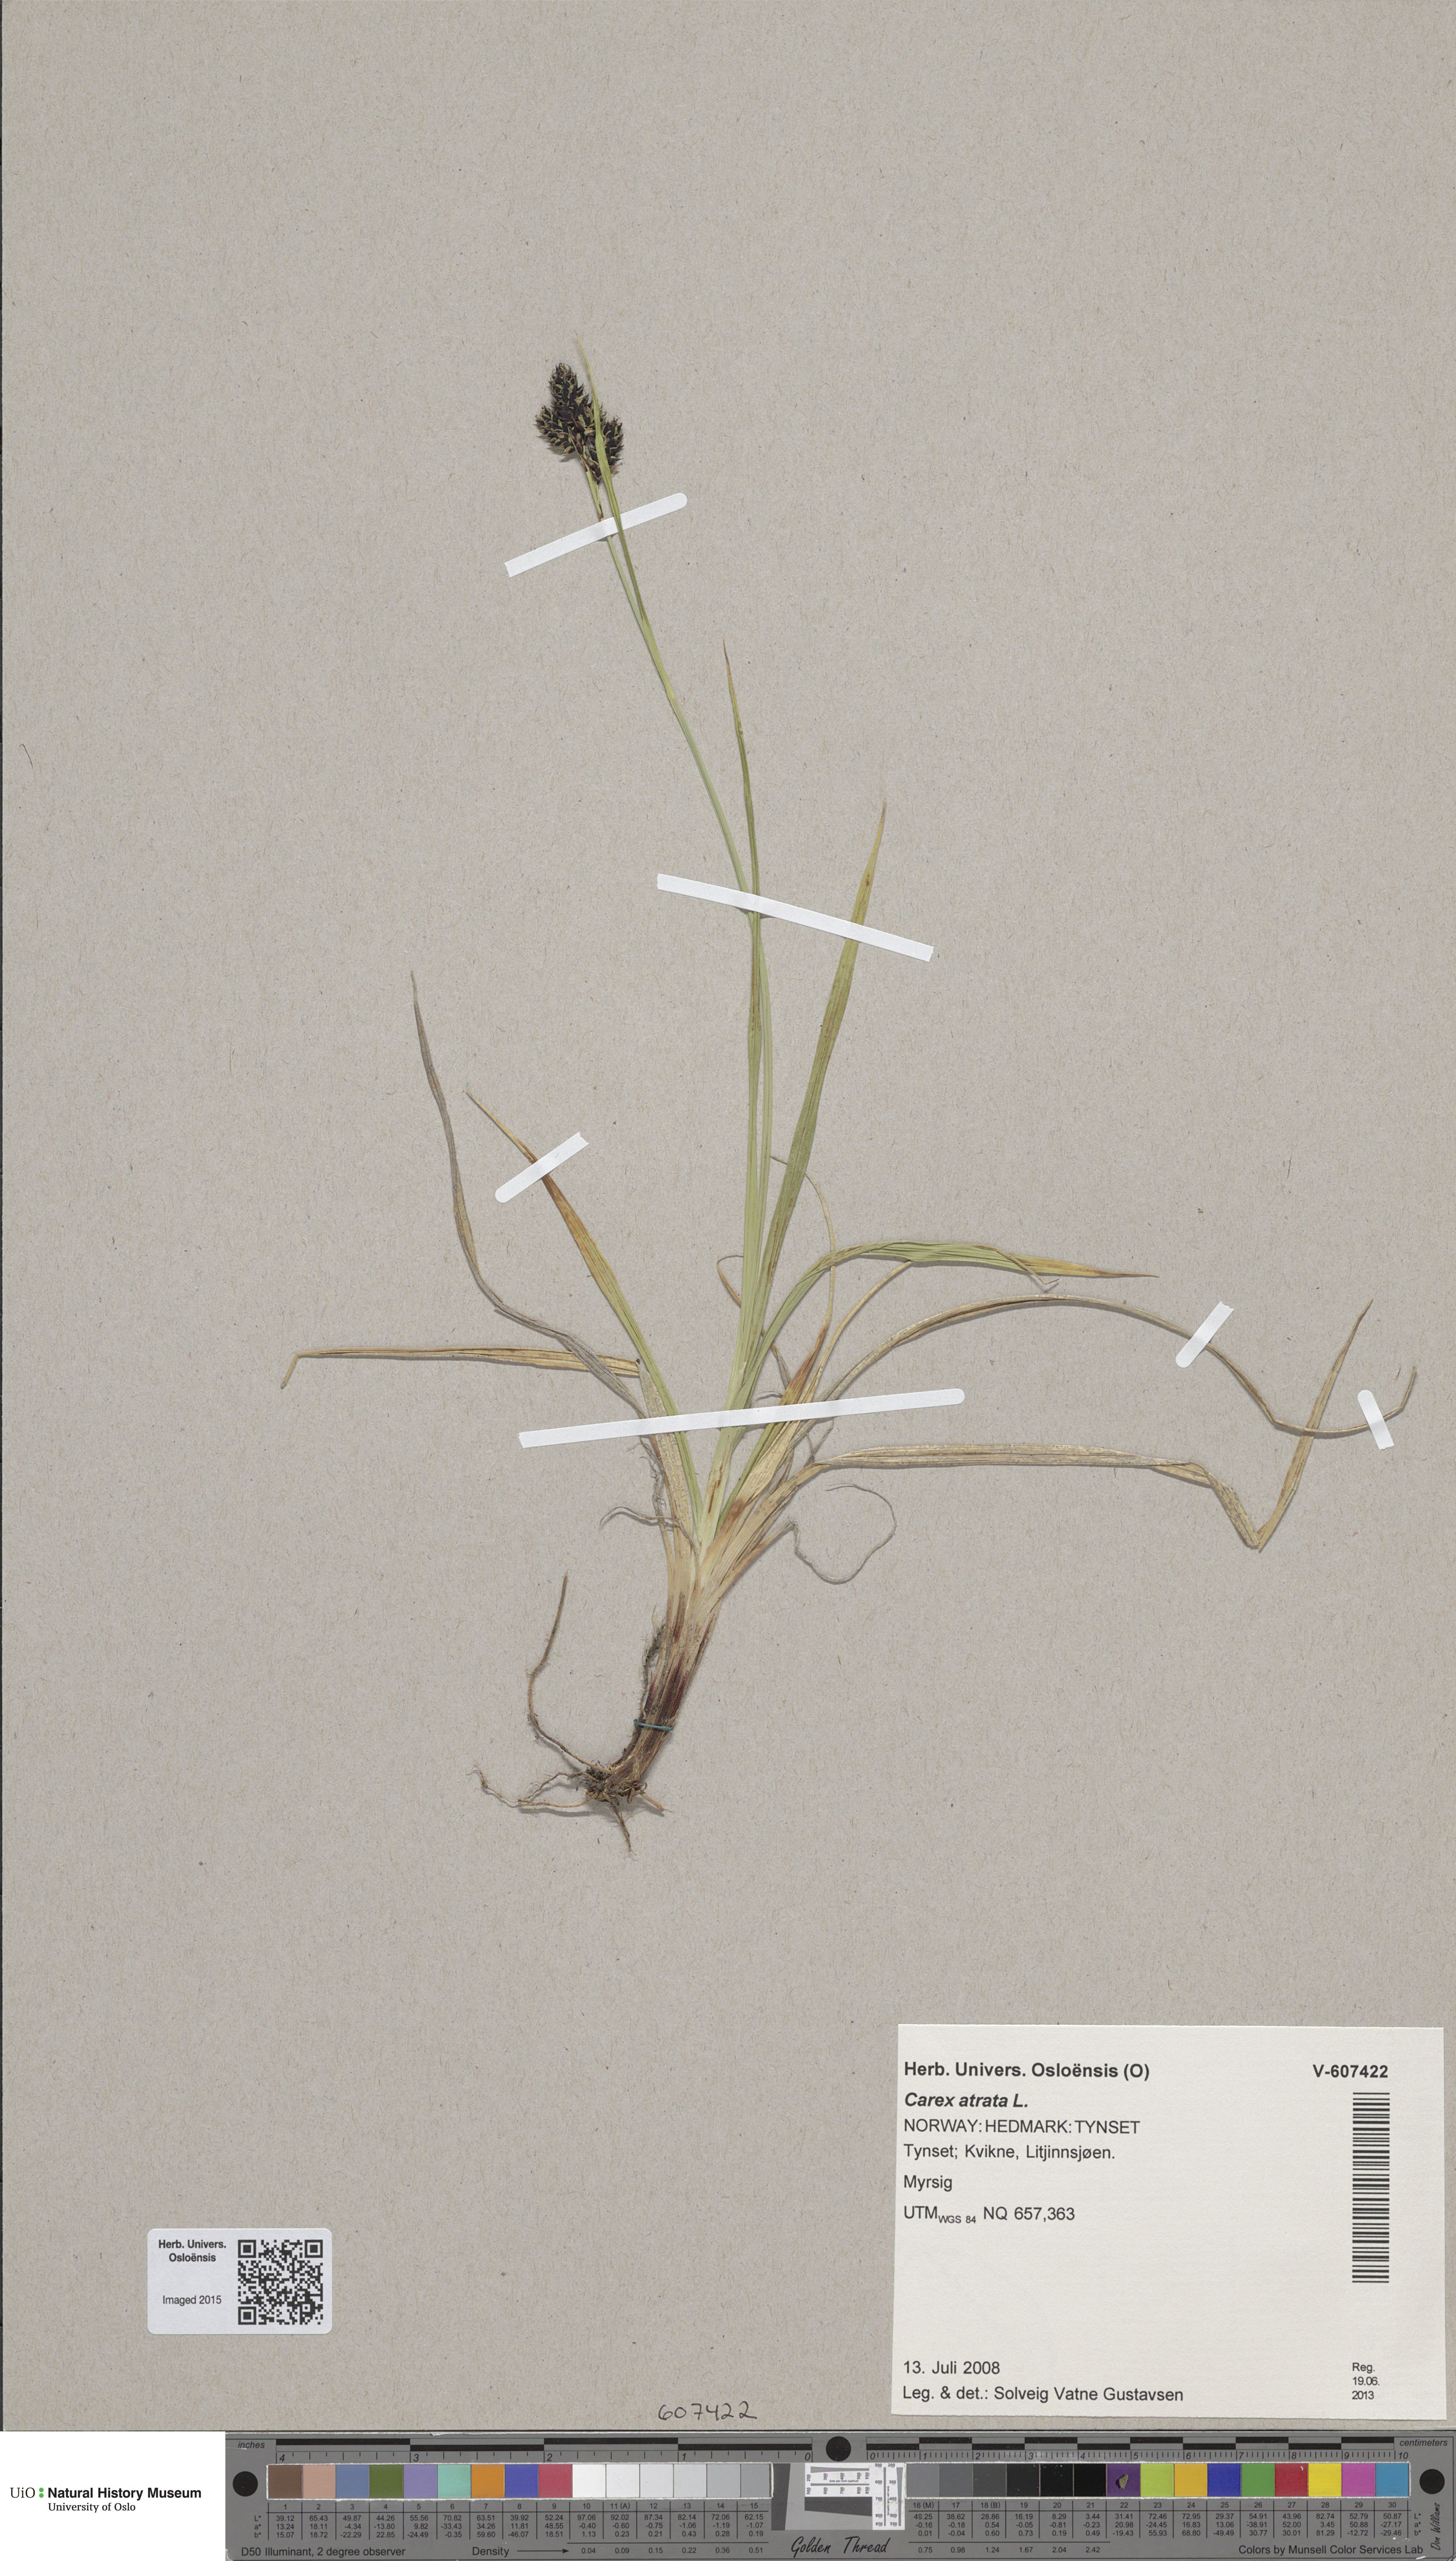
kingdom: Plantae
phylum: Tracheophyta
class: Liliopsida
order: Poales
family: Cyperaceae
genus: Carex
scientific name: Carex atrata
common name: Black alpine sedge
